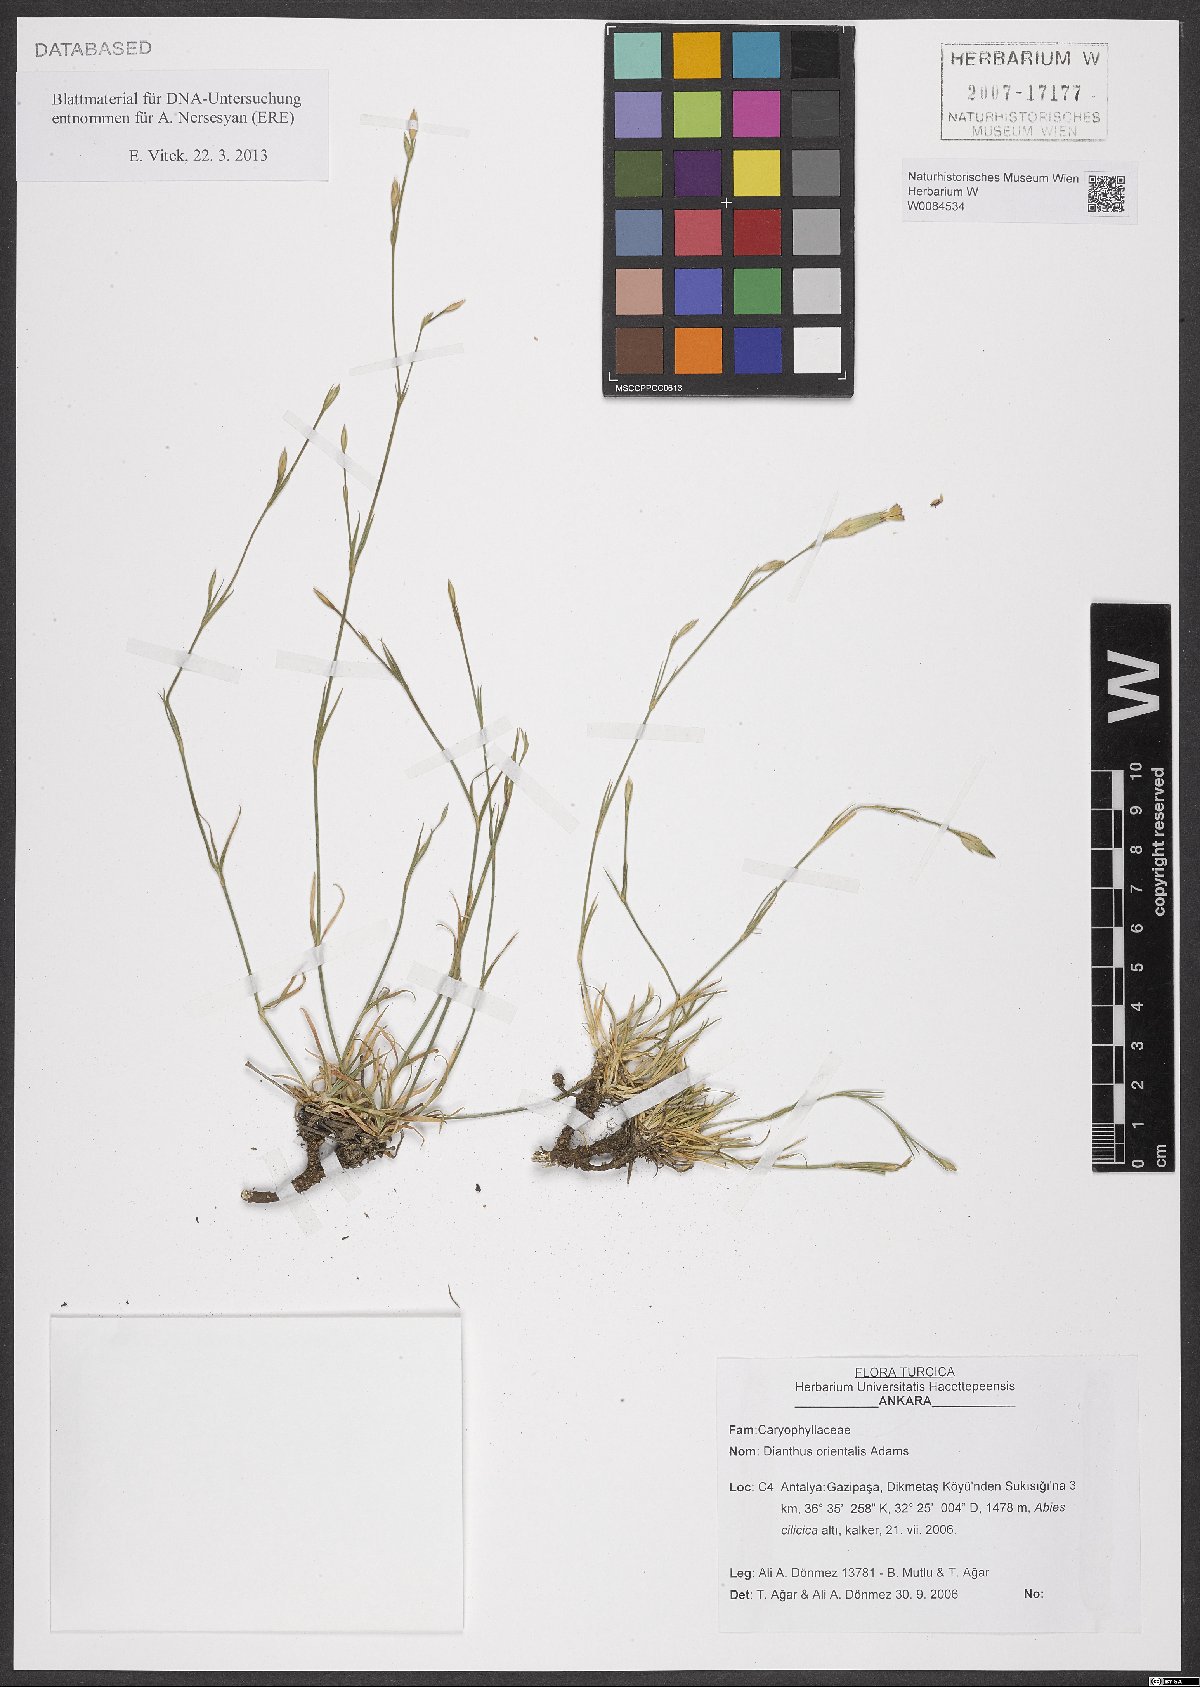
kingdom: Plantae
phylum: Tracheophyta
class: Magnoliopsida
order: Caryophyllales
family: Caryophyllaceae
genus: Dianthus
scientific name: Dianthus orientalis
